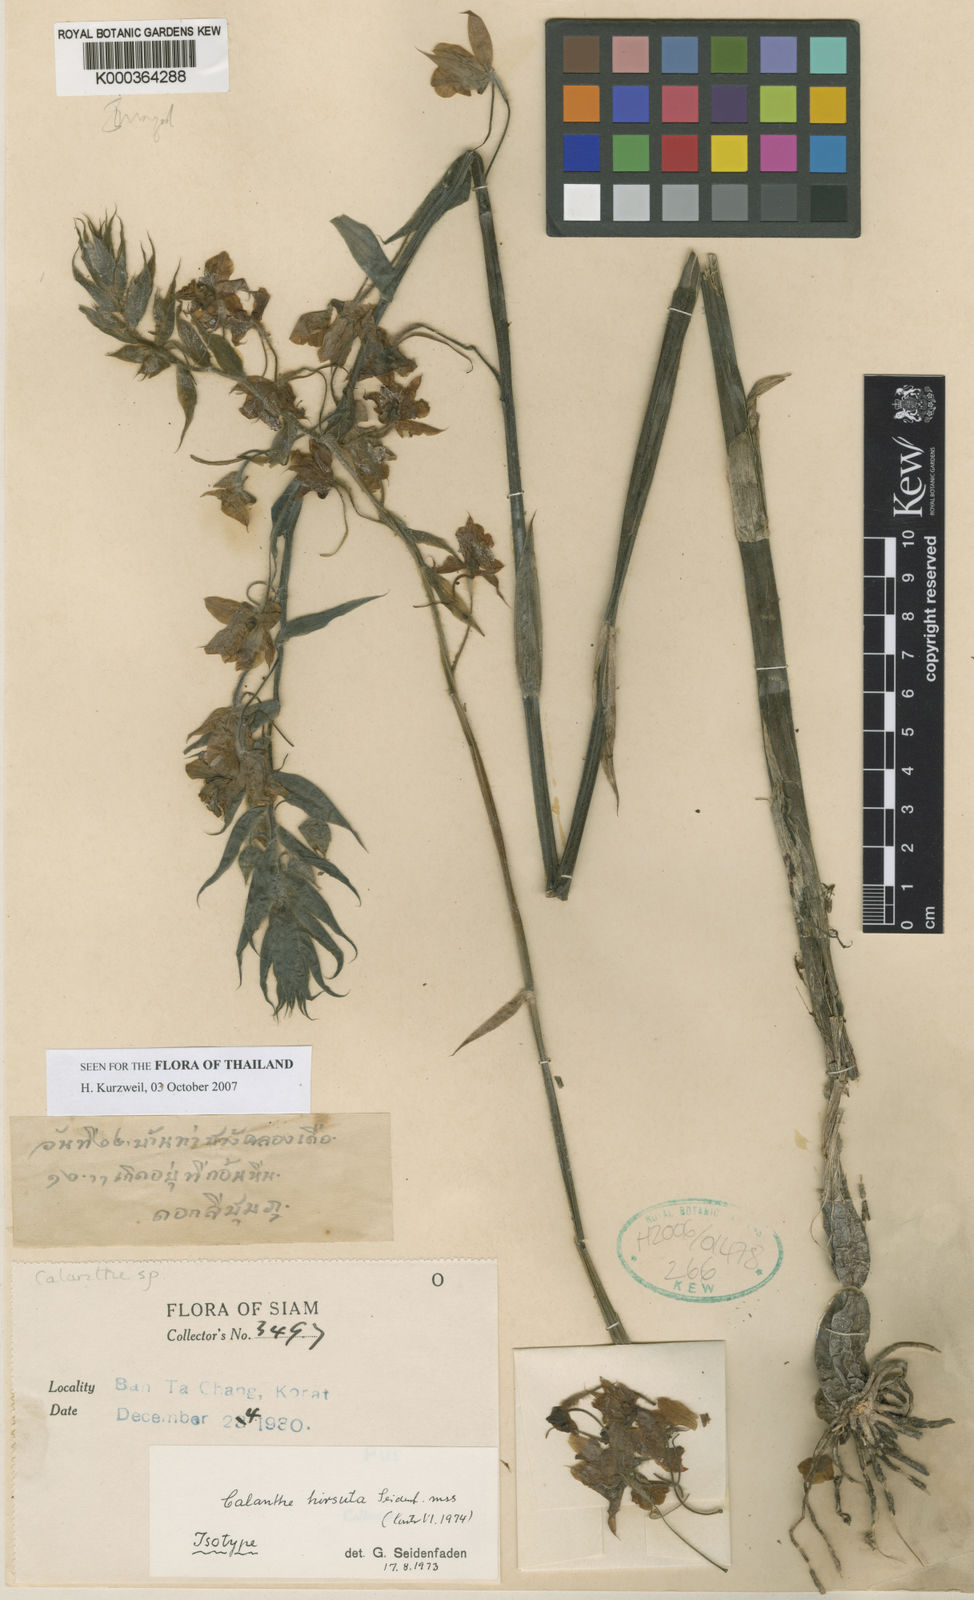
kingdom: Plantae
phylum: Tracheophyta
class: Liliopsida
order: Asparagales
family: Orchidaceae
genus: Calanthe
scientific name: Calanthe hirsuta
